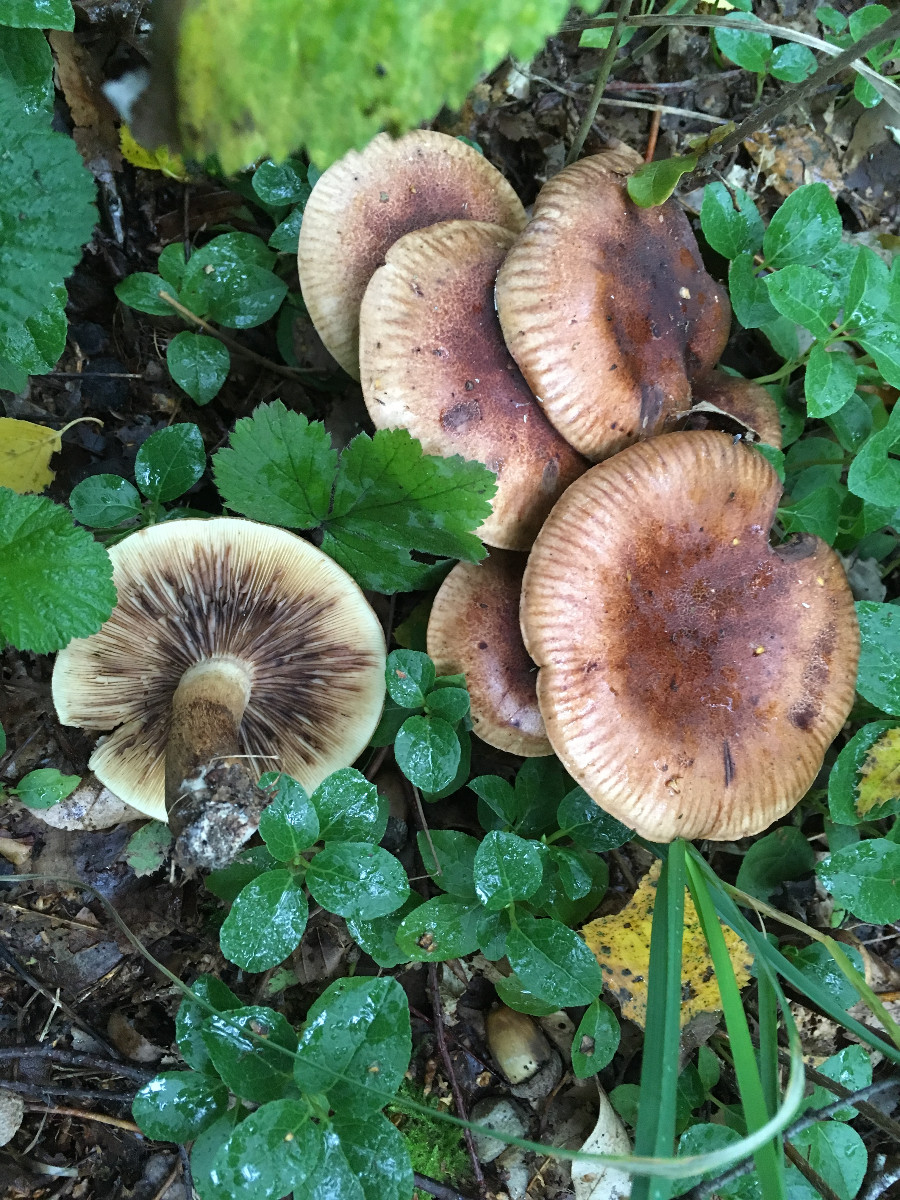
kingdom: Fungi
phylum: Basidiomycota
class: Agaricomycetes
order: Agaricales
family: Tricholomataceae
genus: Tricholoma
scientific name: Tricholoma fulvum
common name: birke-ridderhat
